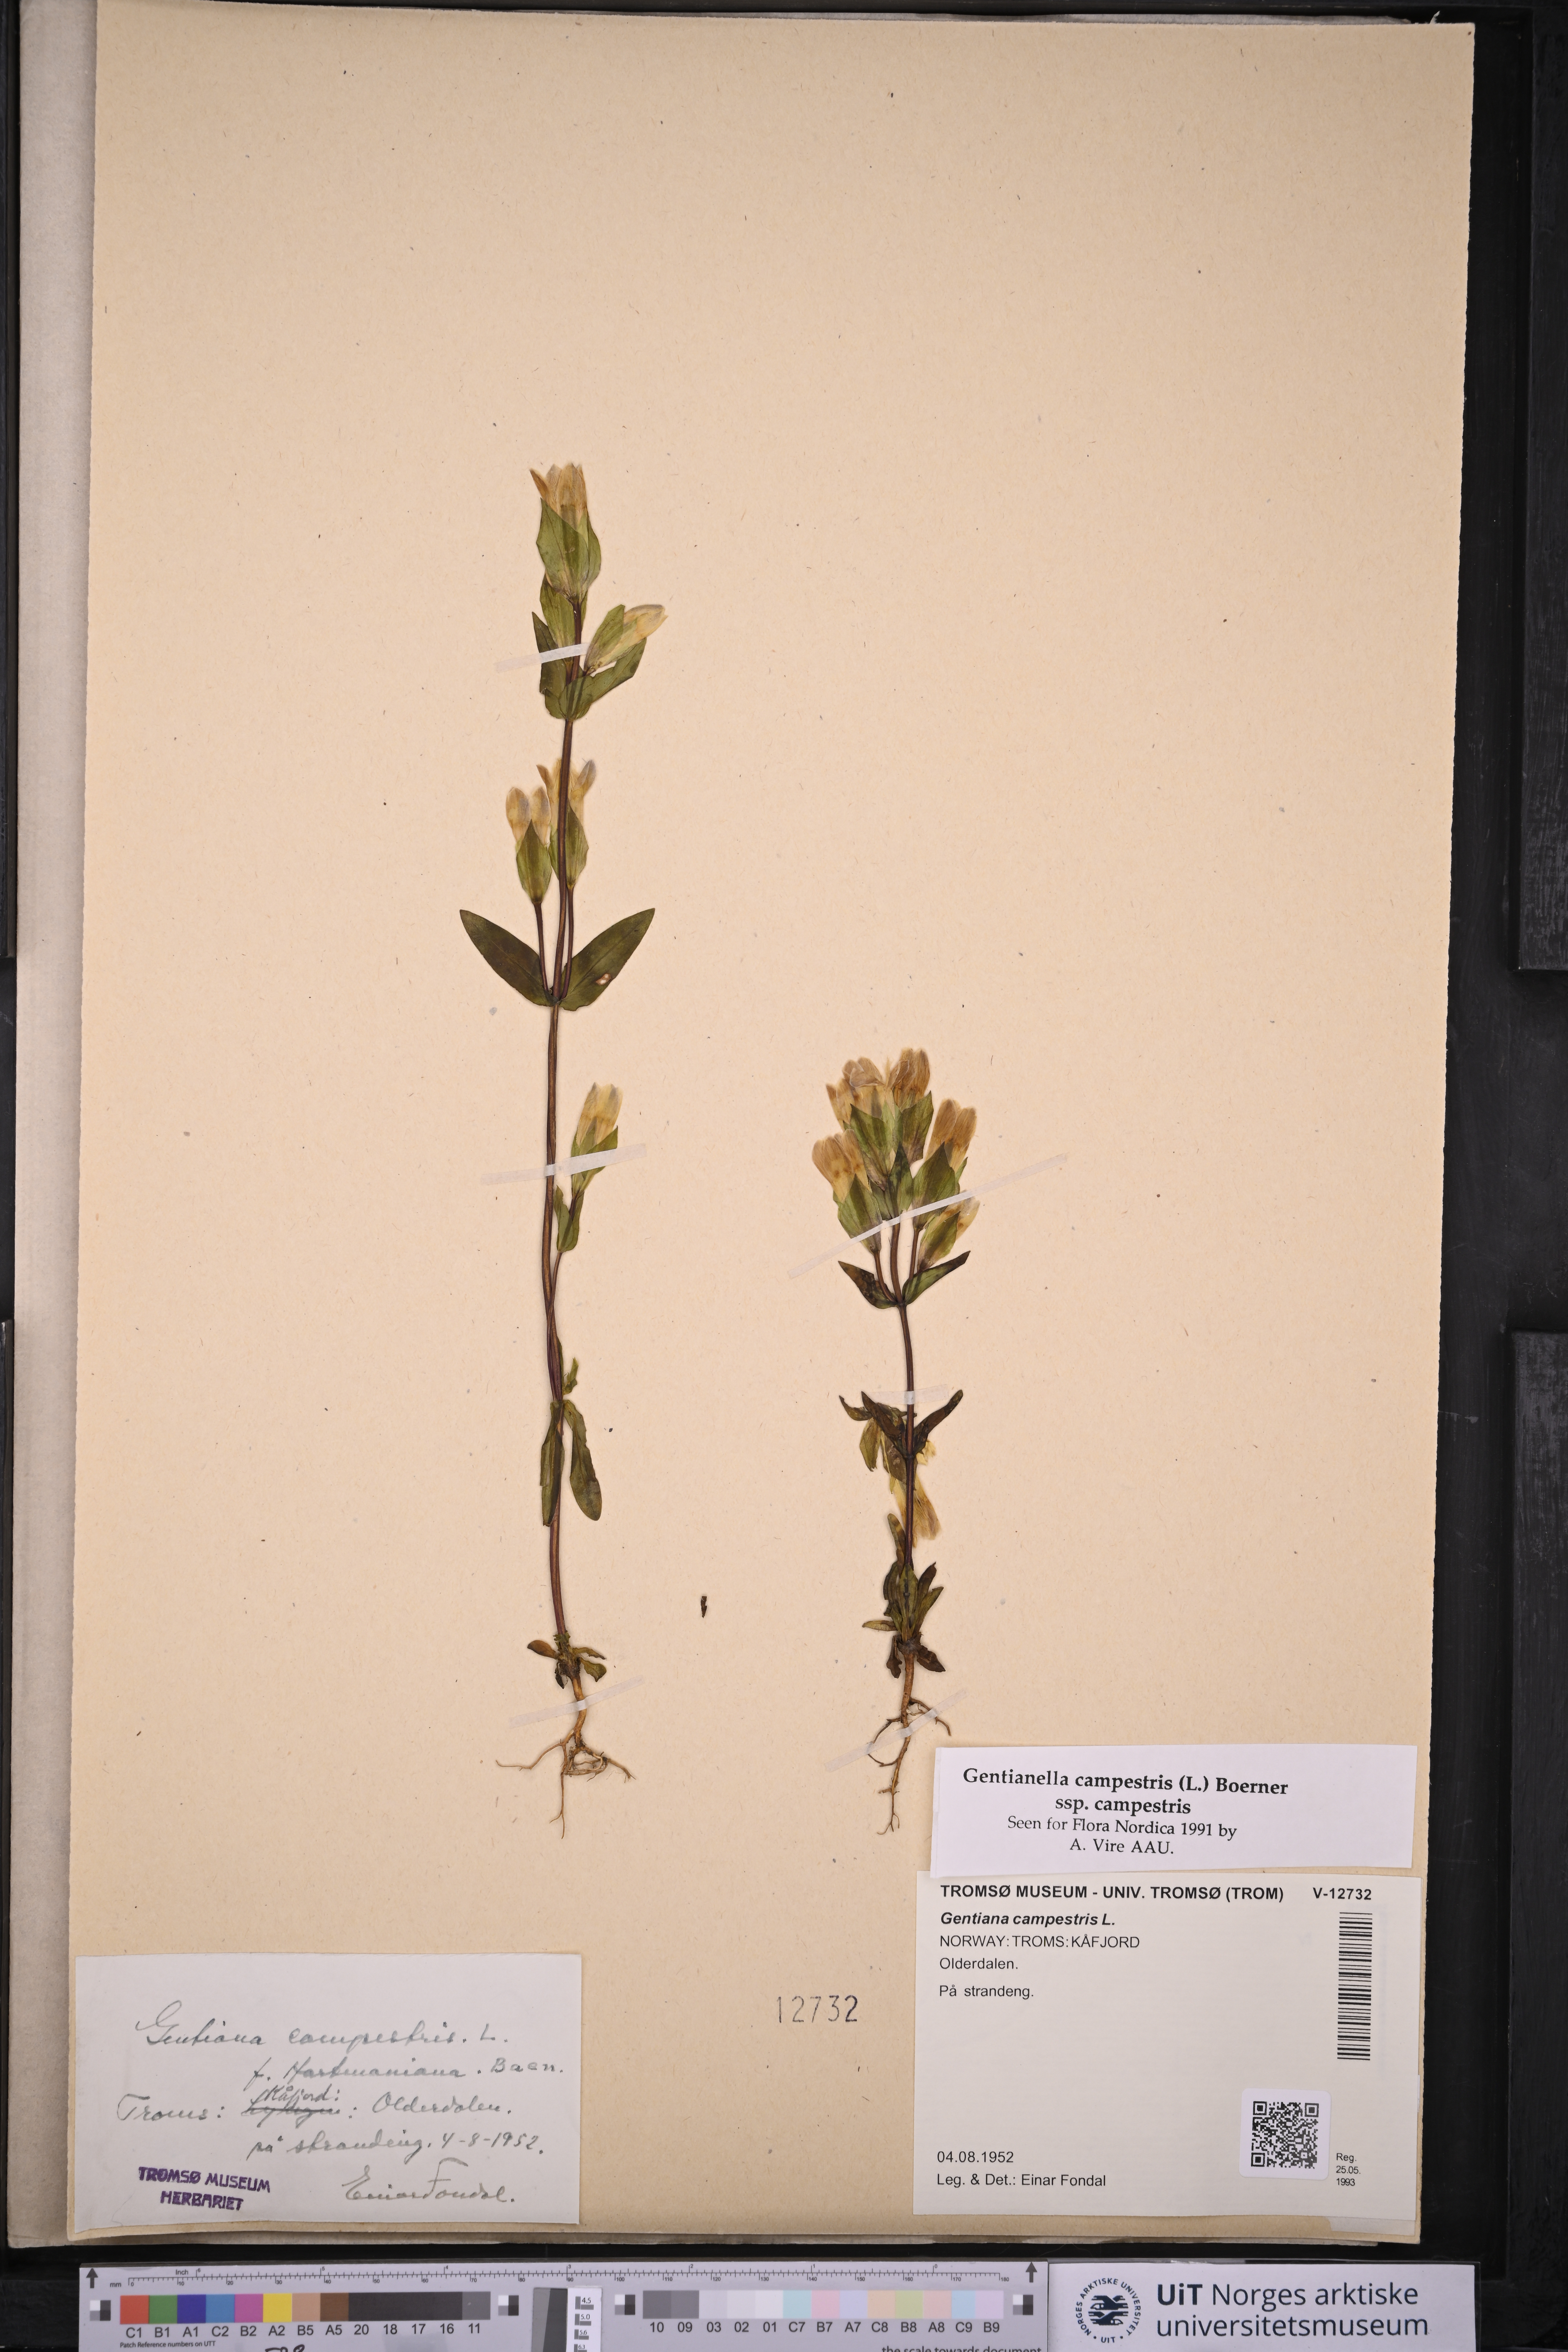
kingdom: Plantae
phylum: Tracheophyta
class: Magnoliopsida
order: Gentianales
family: Gentianaceae
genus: Gentianella
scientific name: Gentianella campestris
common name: Field gentian
